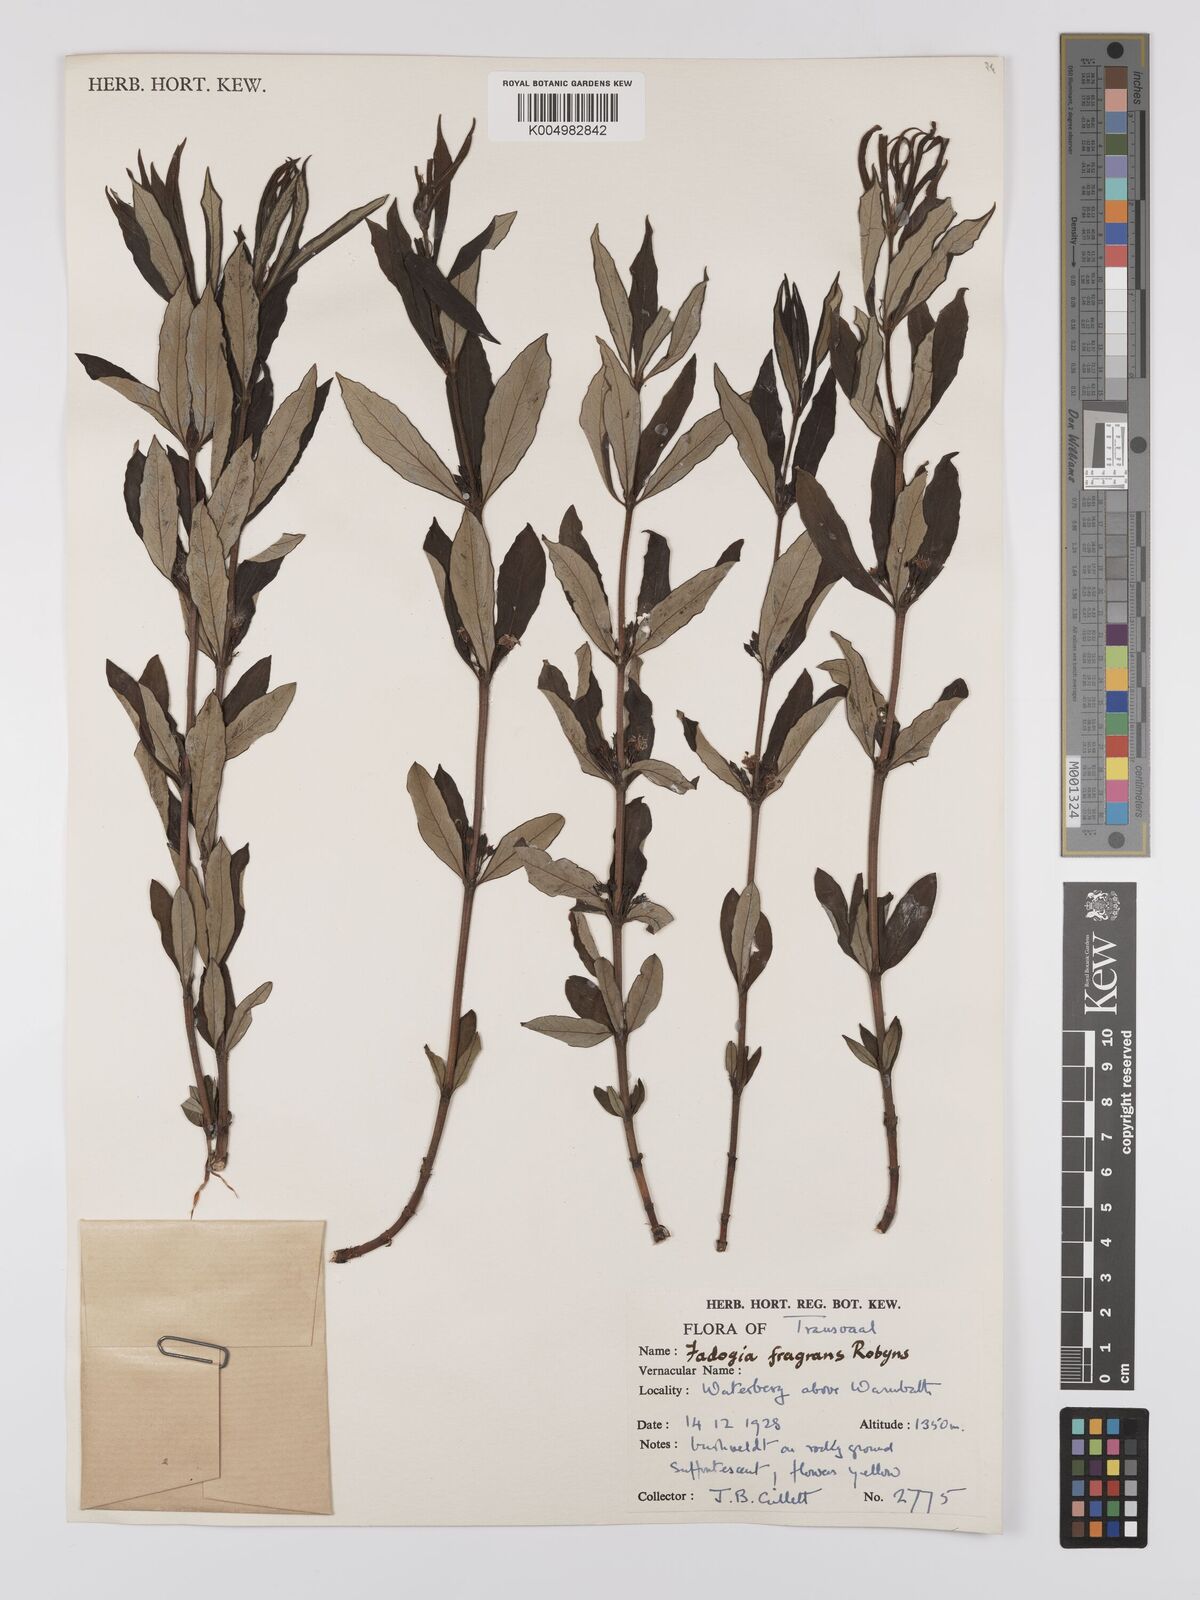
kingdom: Plantae
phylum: Tracheophyta
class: Magnoliopsida
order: Gentianales
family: Rubiaceae
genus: Fadogia
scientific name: Fadogia triphylla
